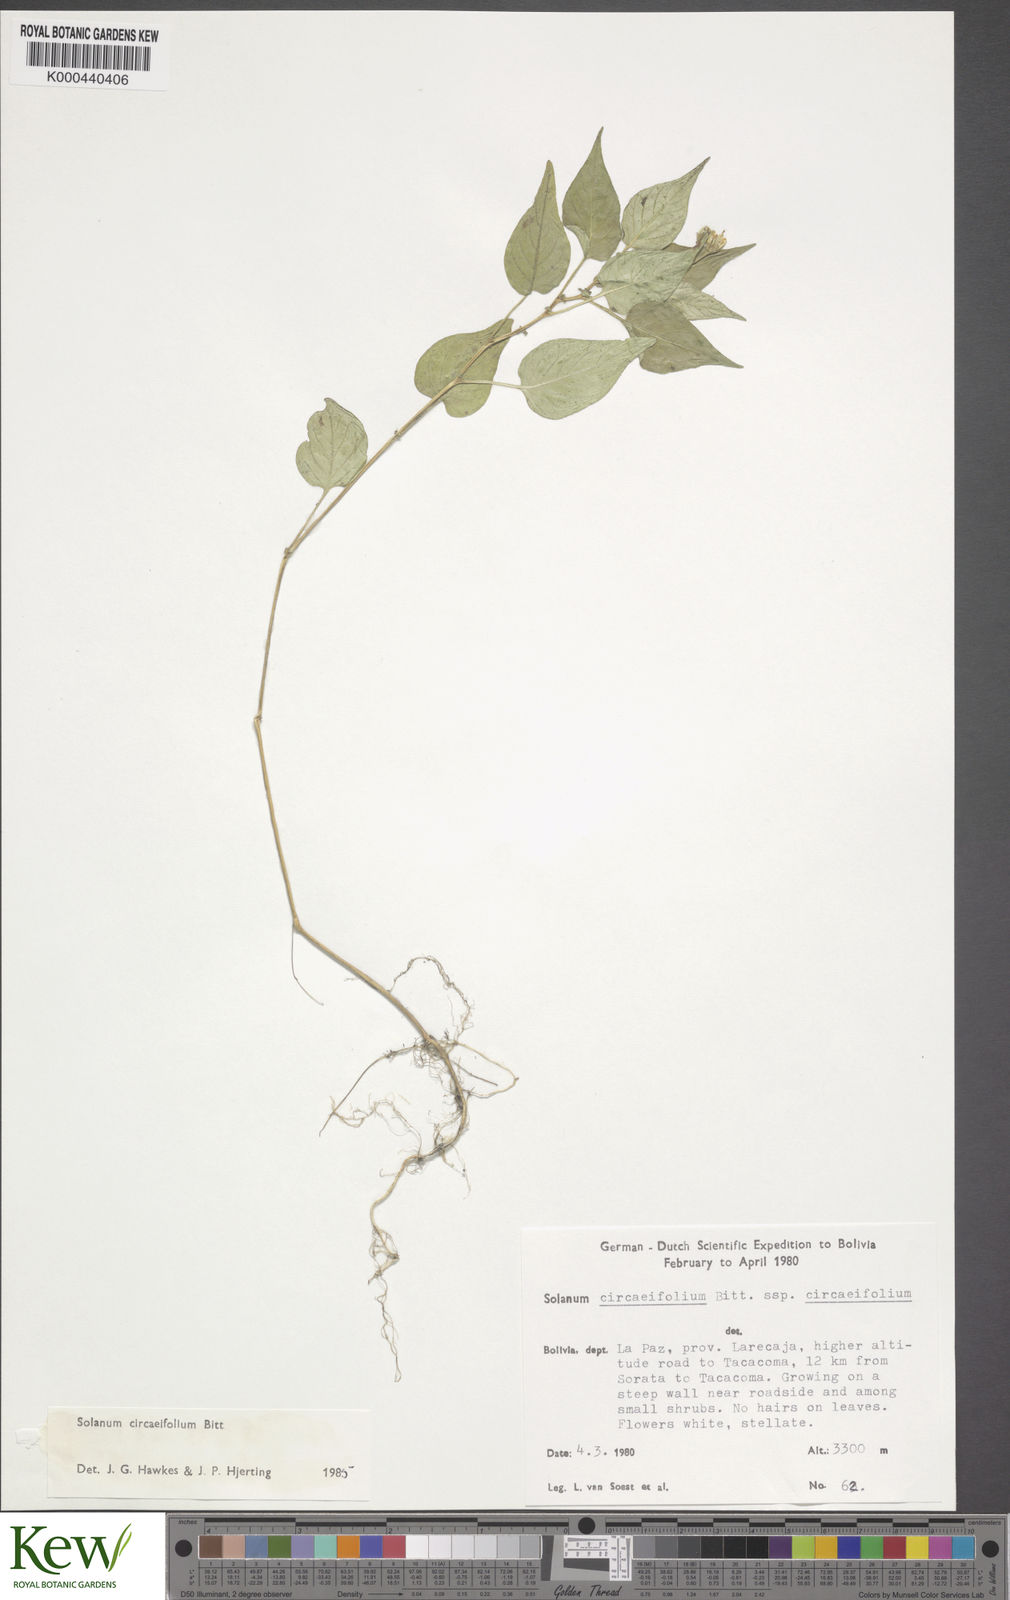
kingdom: Plantae
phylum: Tracheophyta
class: Magnoliopsida
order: Solanales
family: Solanaceae
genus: Solanum
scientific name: Solanum stipuloideum
